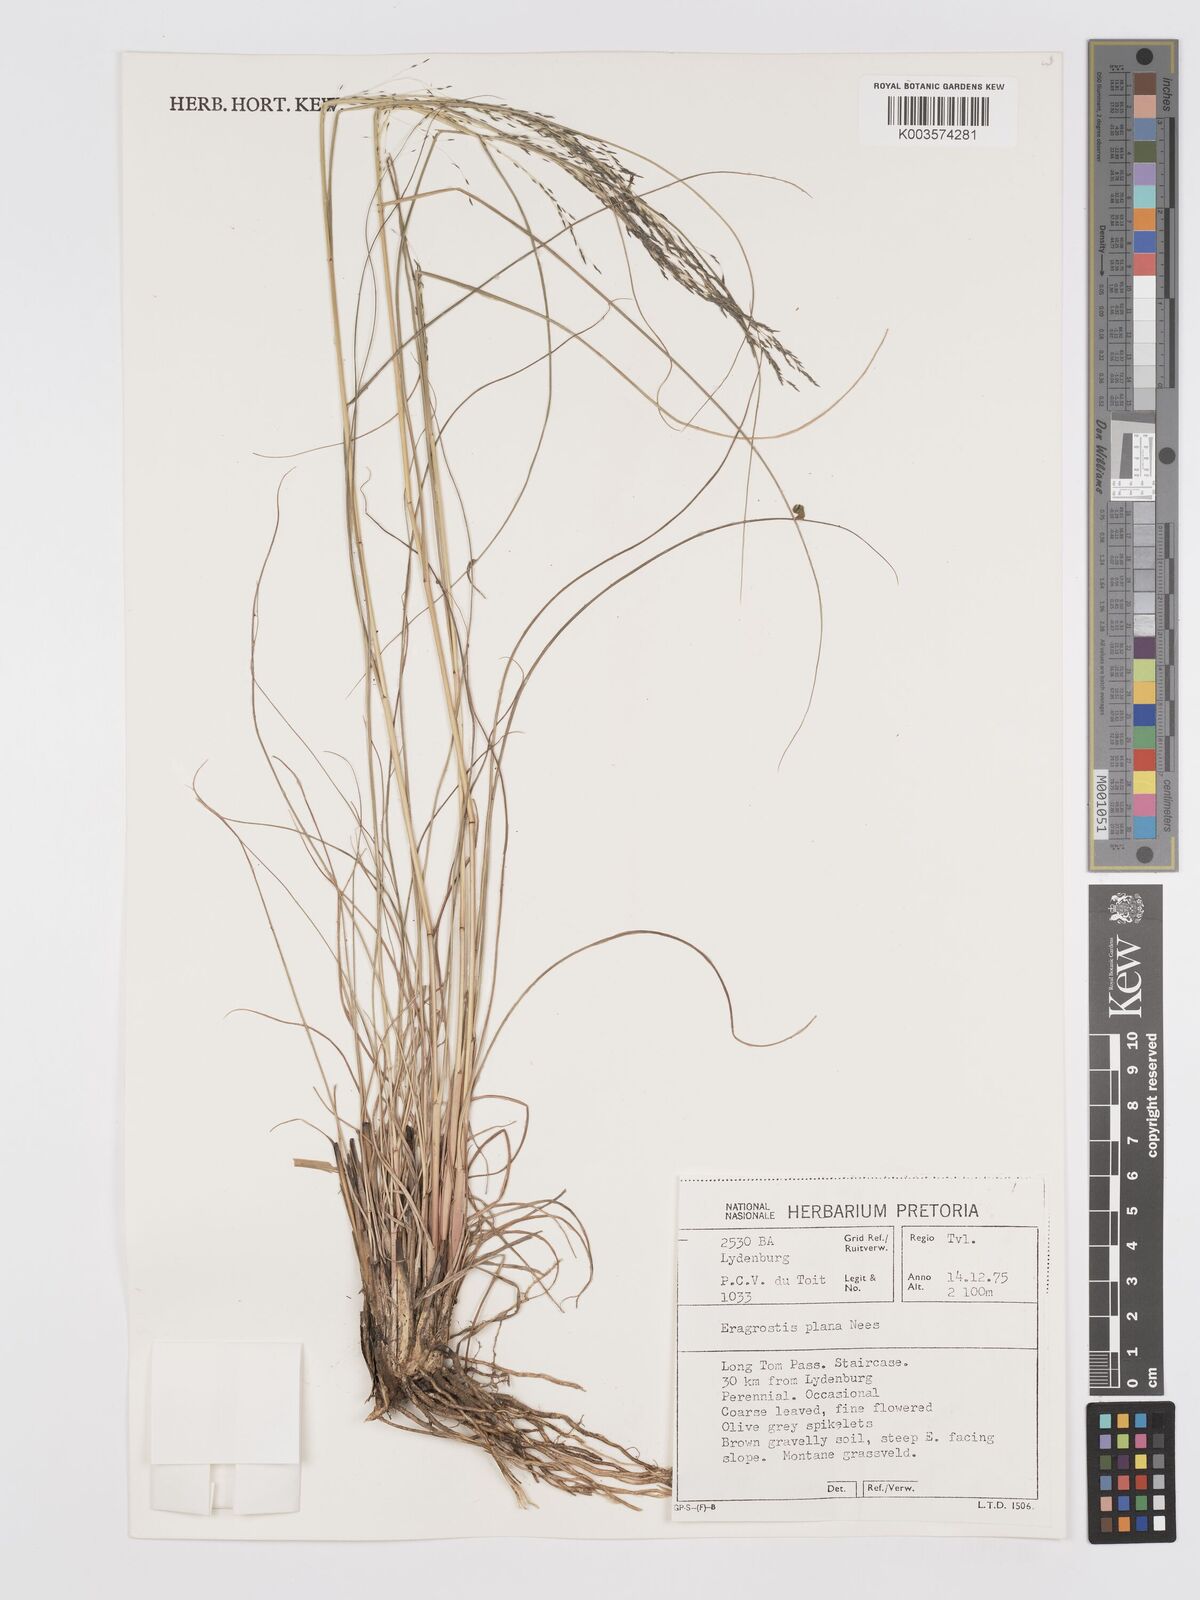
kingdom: Plantae
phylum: Tracheophyta
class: Liliopsida
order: Poales
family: Poaceae
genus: Eragrostis
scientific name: Eragrostis plana
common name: South african lovegrass
